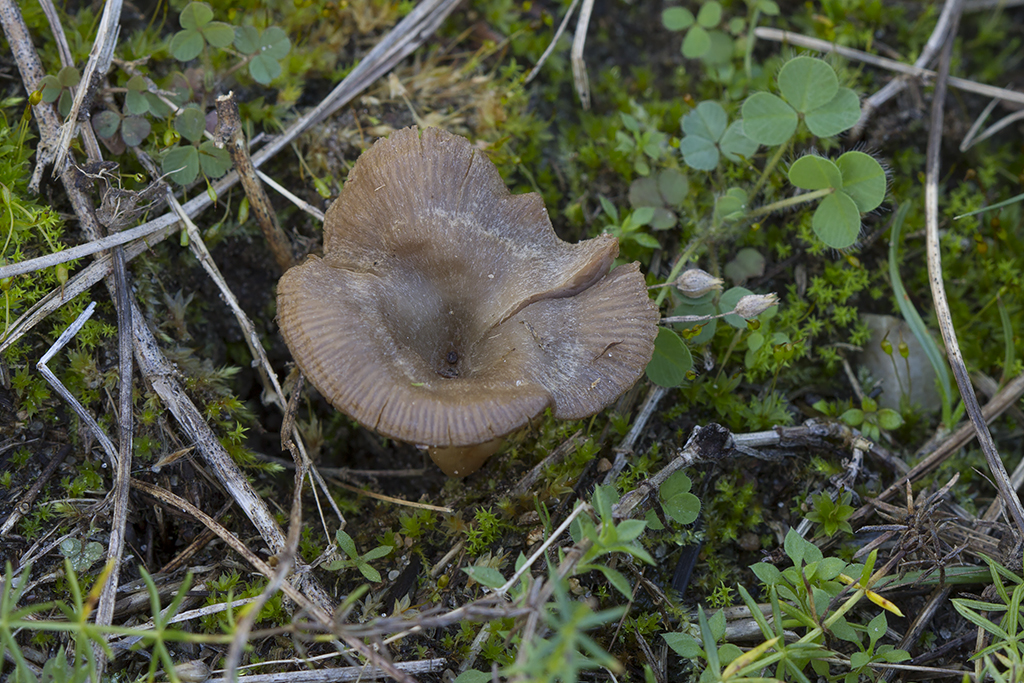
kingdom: Fungi
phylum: Basidiomycota
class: Agaricomycetes
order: Agaricales
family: Entolomataceae
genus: Entoloma
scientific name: Entoloma undatum
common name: bæltet rødblad
